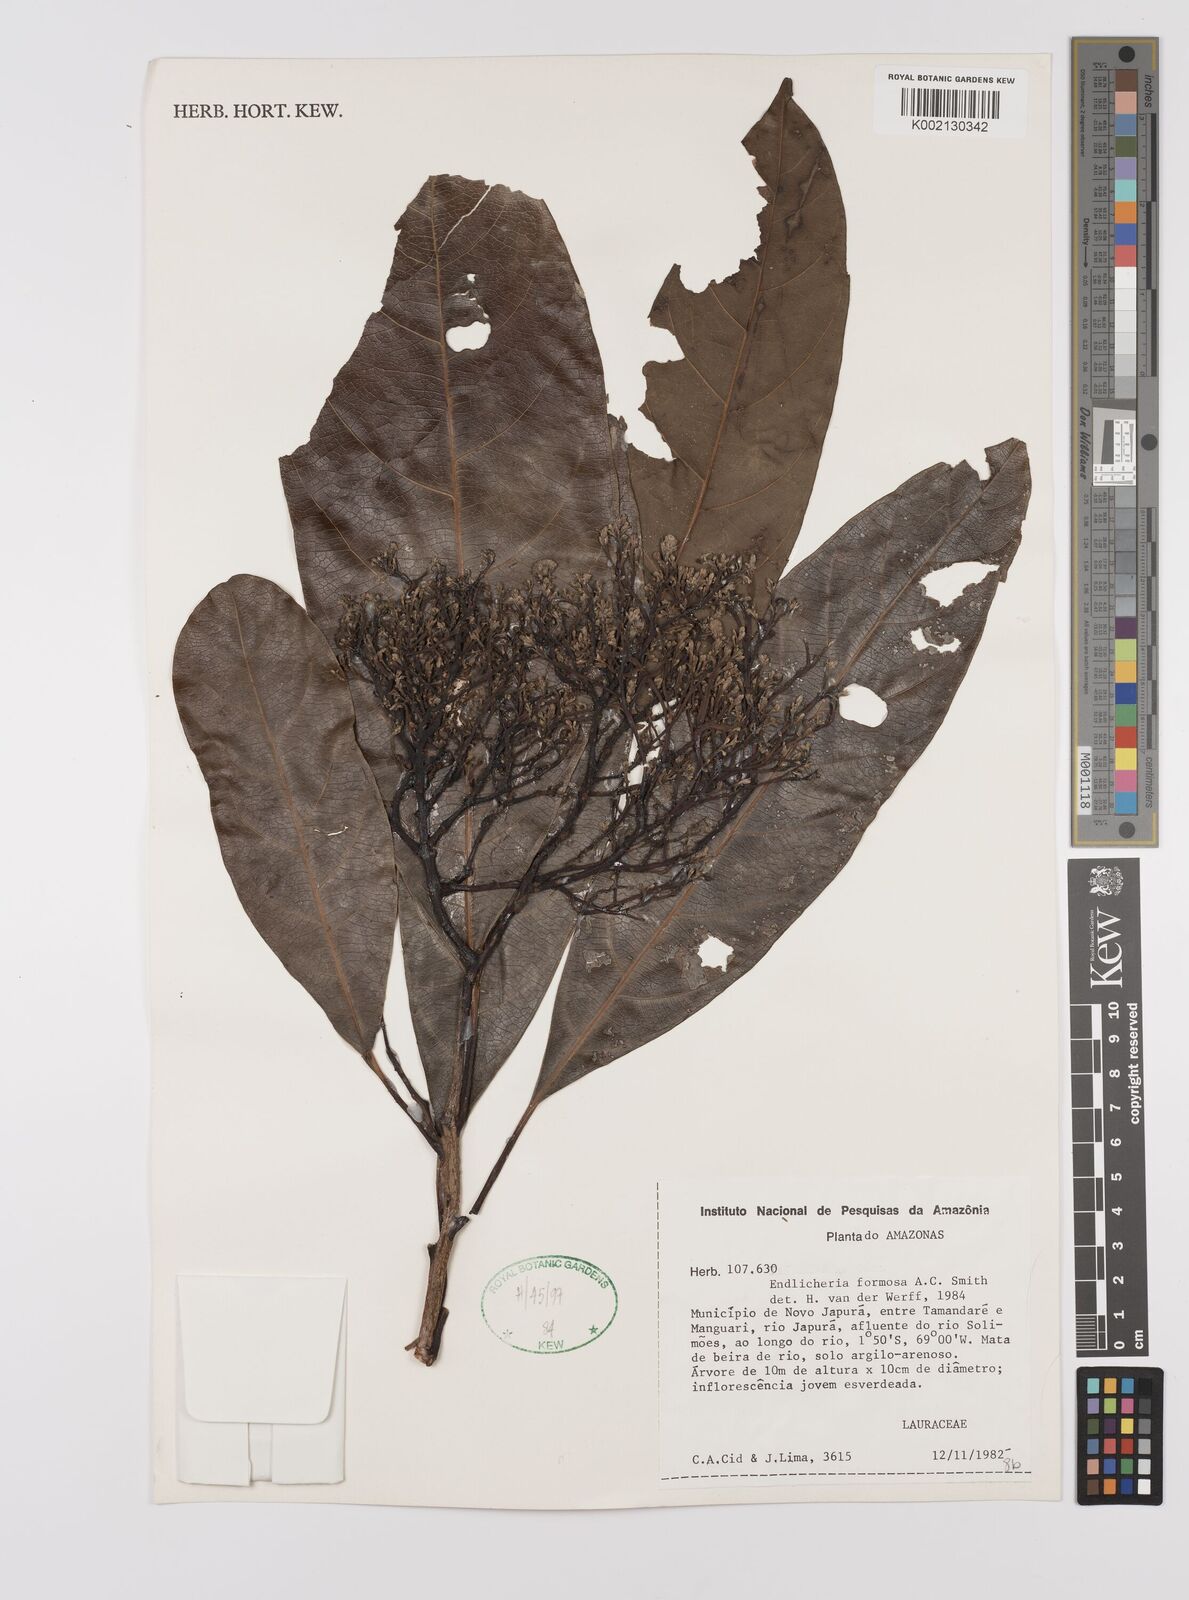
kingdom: Plantae
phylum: Tracheophyta
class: Magnoliopsida
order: Laurales
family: Lauraceae
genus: Endlicheria
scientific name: Endlicheria formosa
